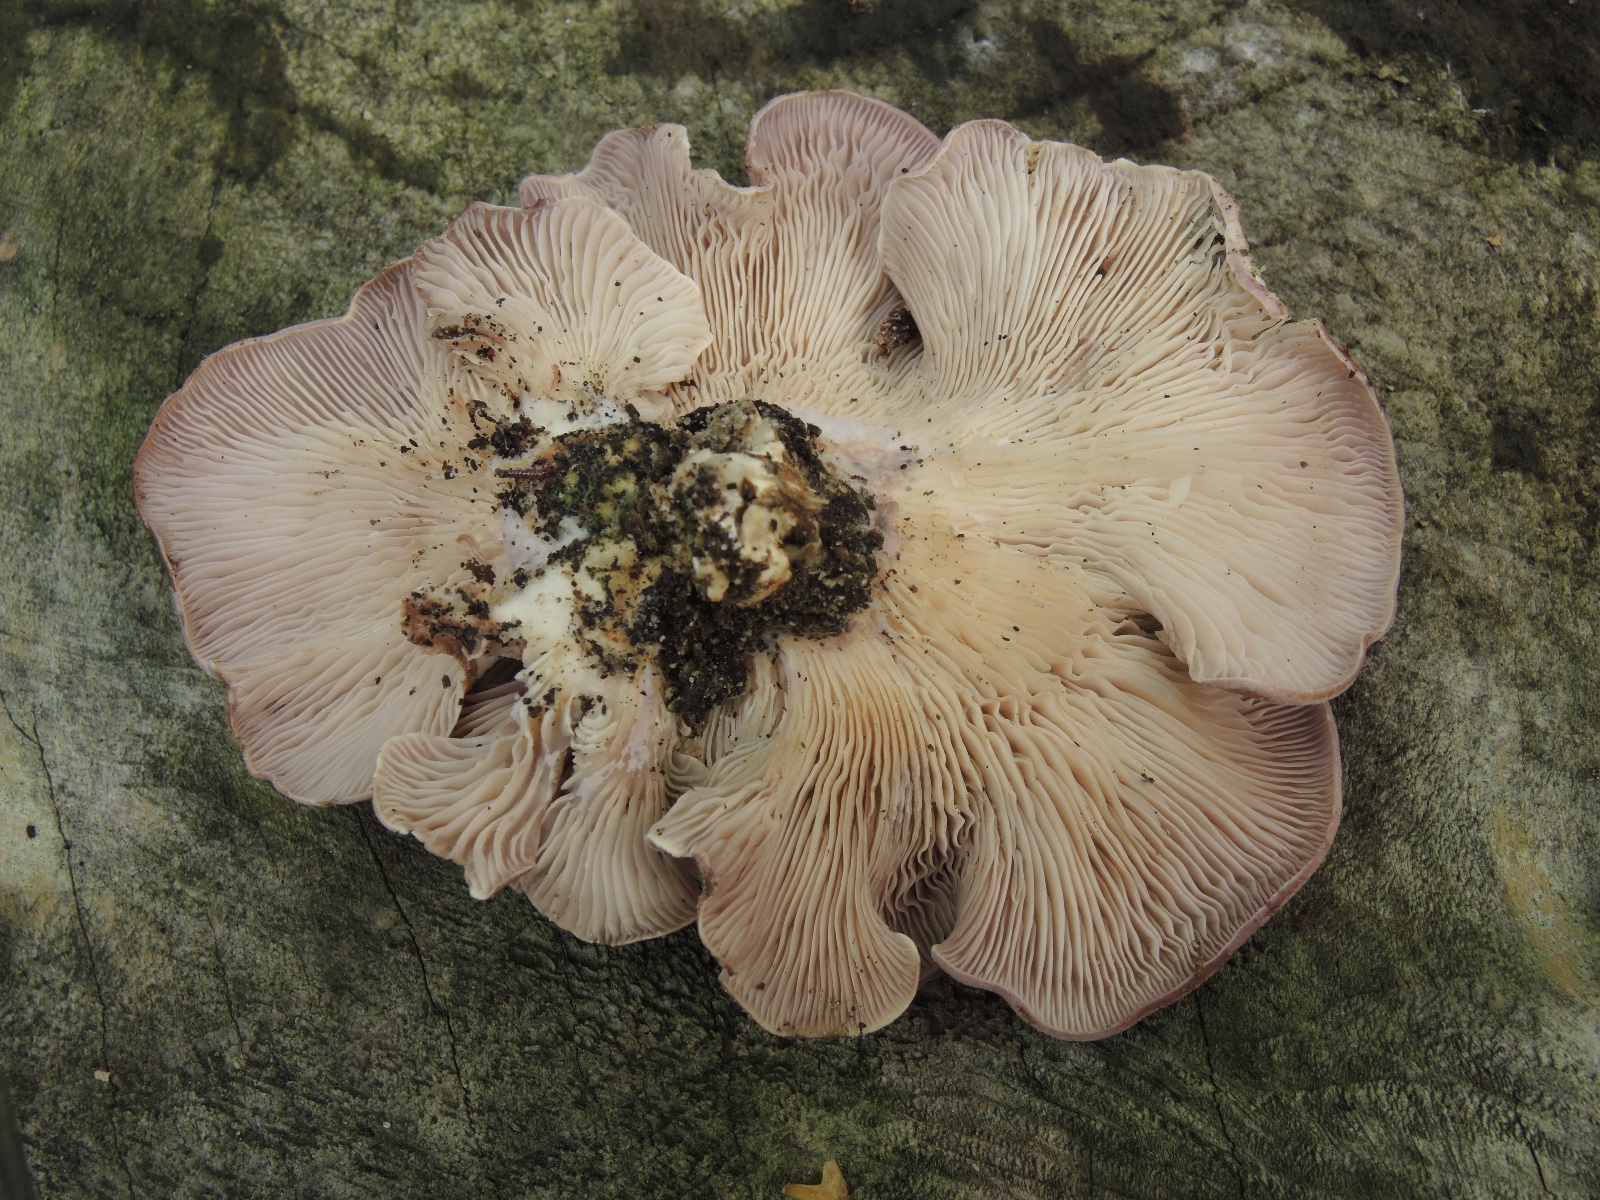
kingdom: Fungi
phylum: Basidiomycota
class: Agaricomycetes
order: Polyporales
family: Panaceae
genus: Panus
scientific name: Panus conchatus
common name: filtstokket læderhat
